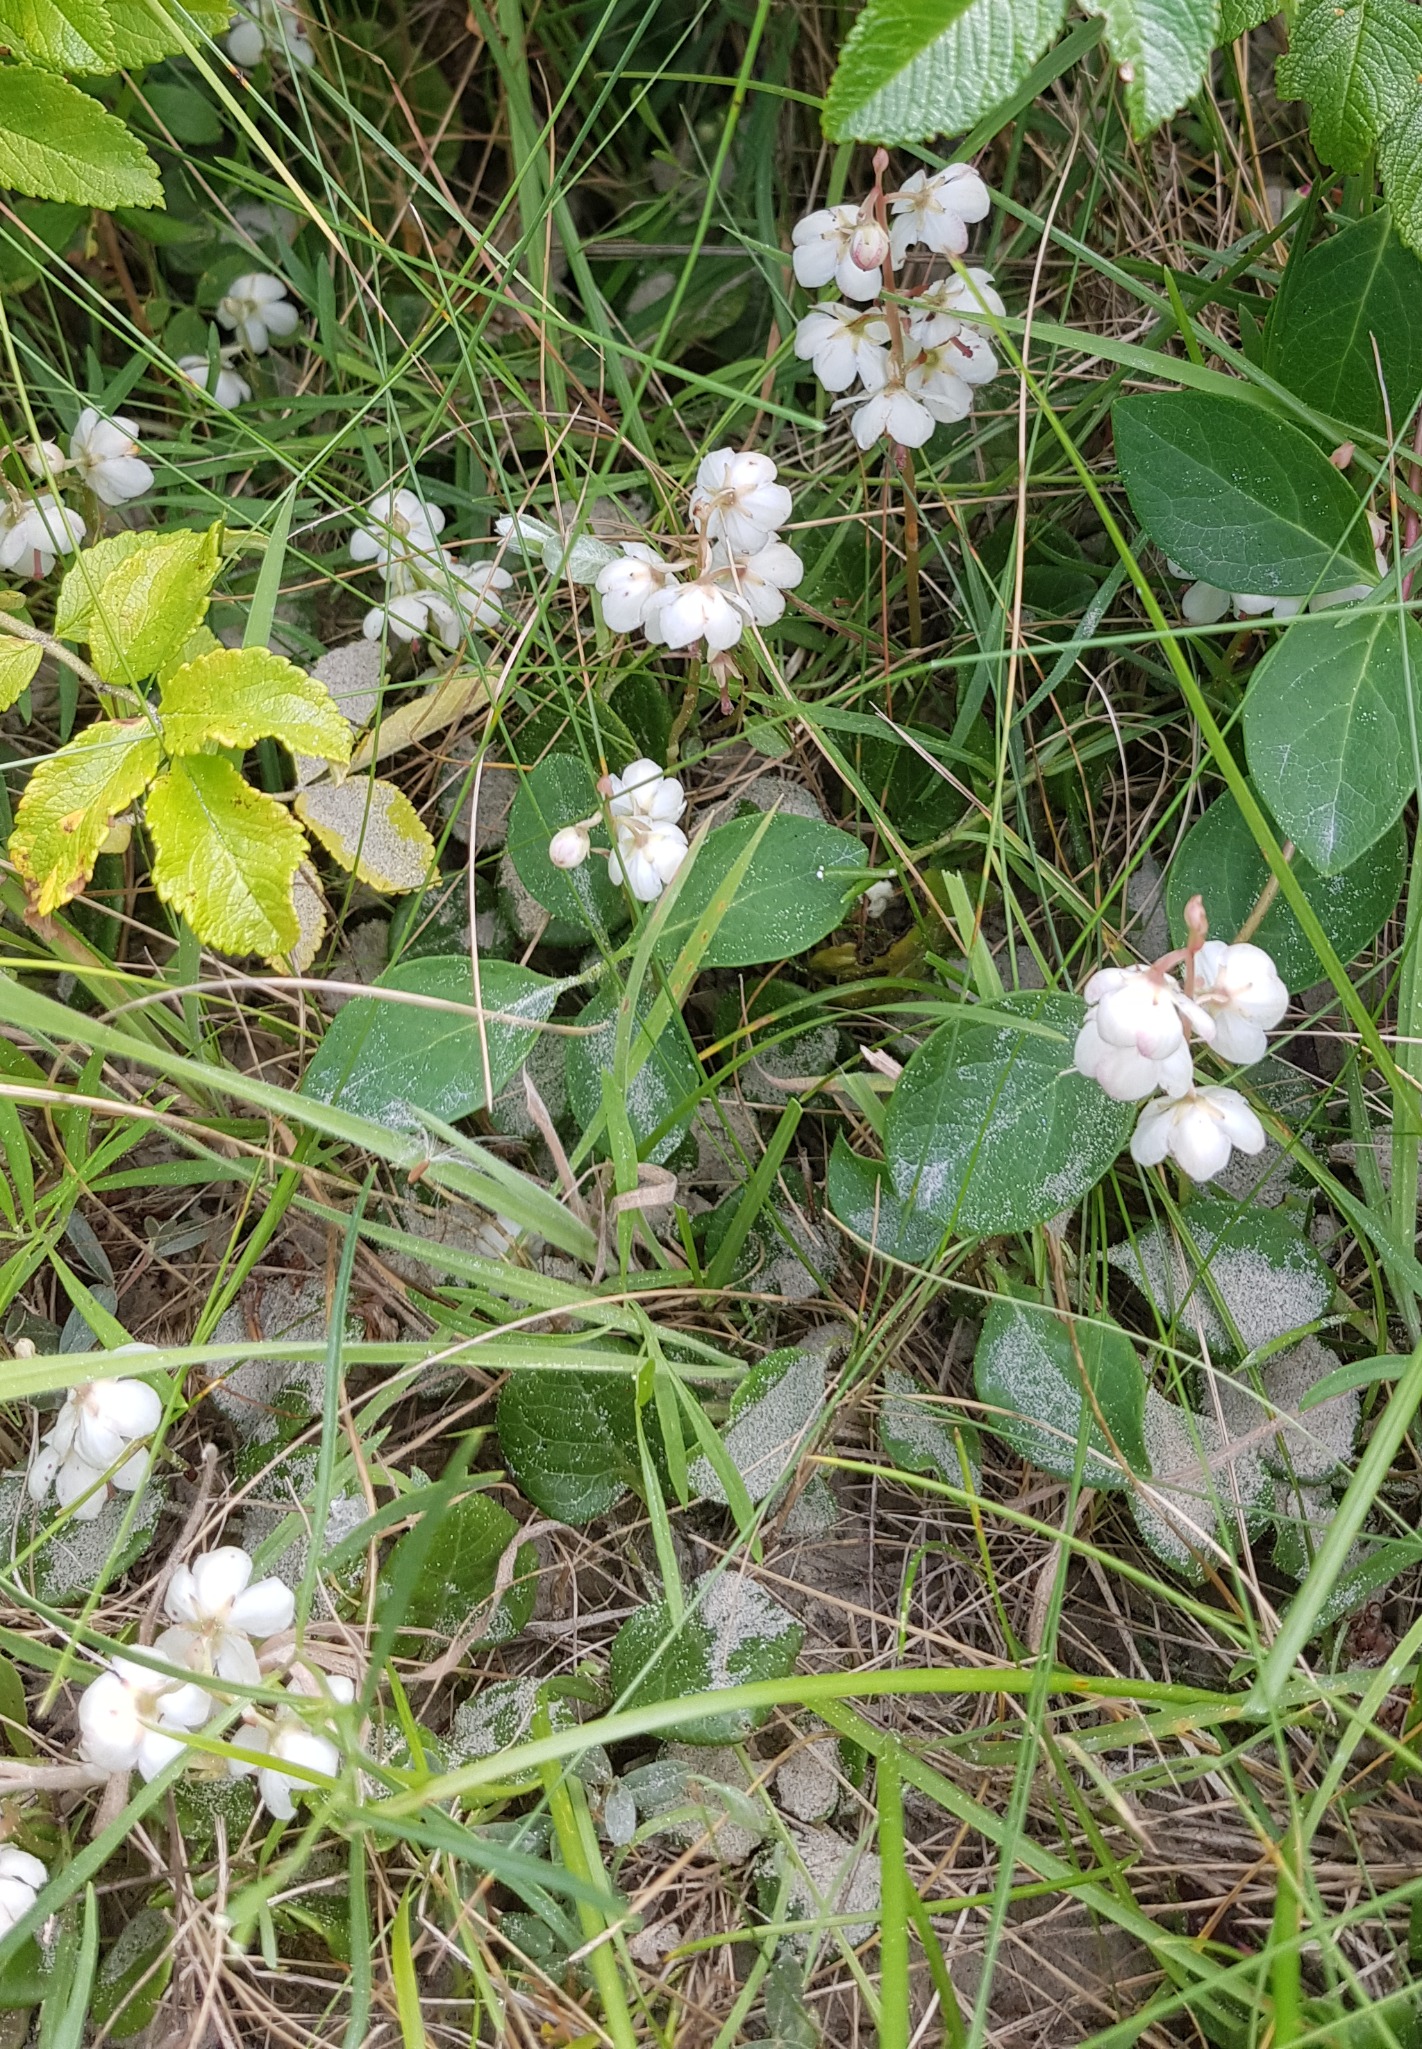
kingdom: Plantae
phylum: Tracheophyta
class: Magnoliopsida
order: Ericales
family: Ericaceae
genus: Pyrola
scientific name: Pyrola rotundifolia
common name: Mose-vintergrøn (underart)
